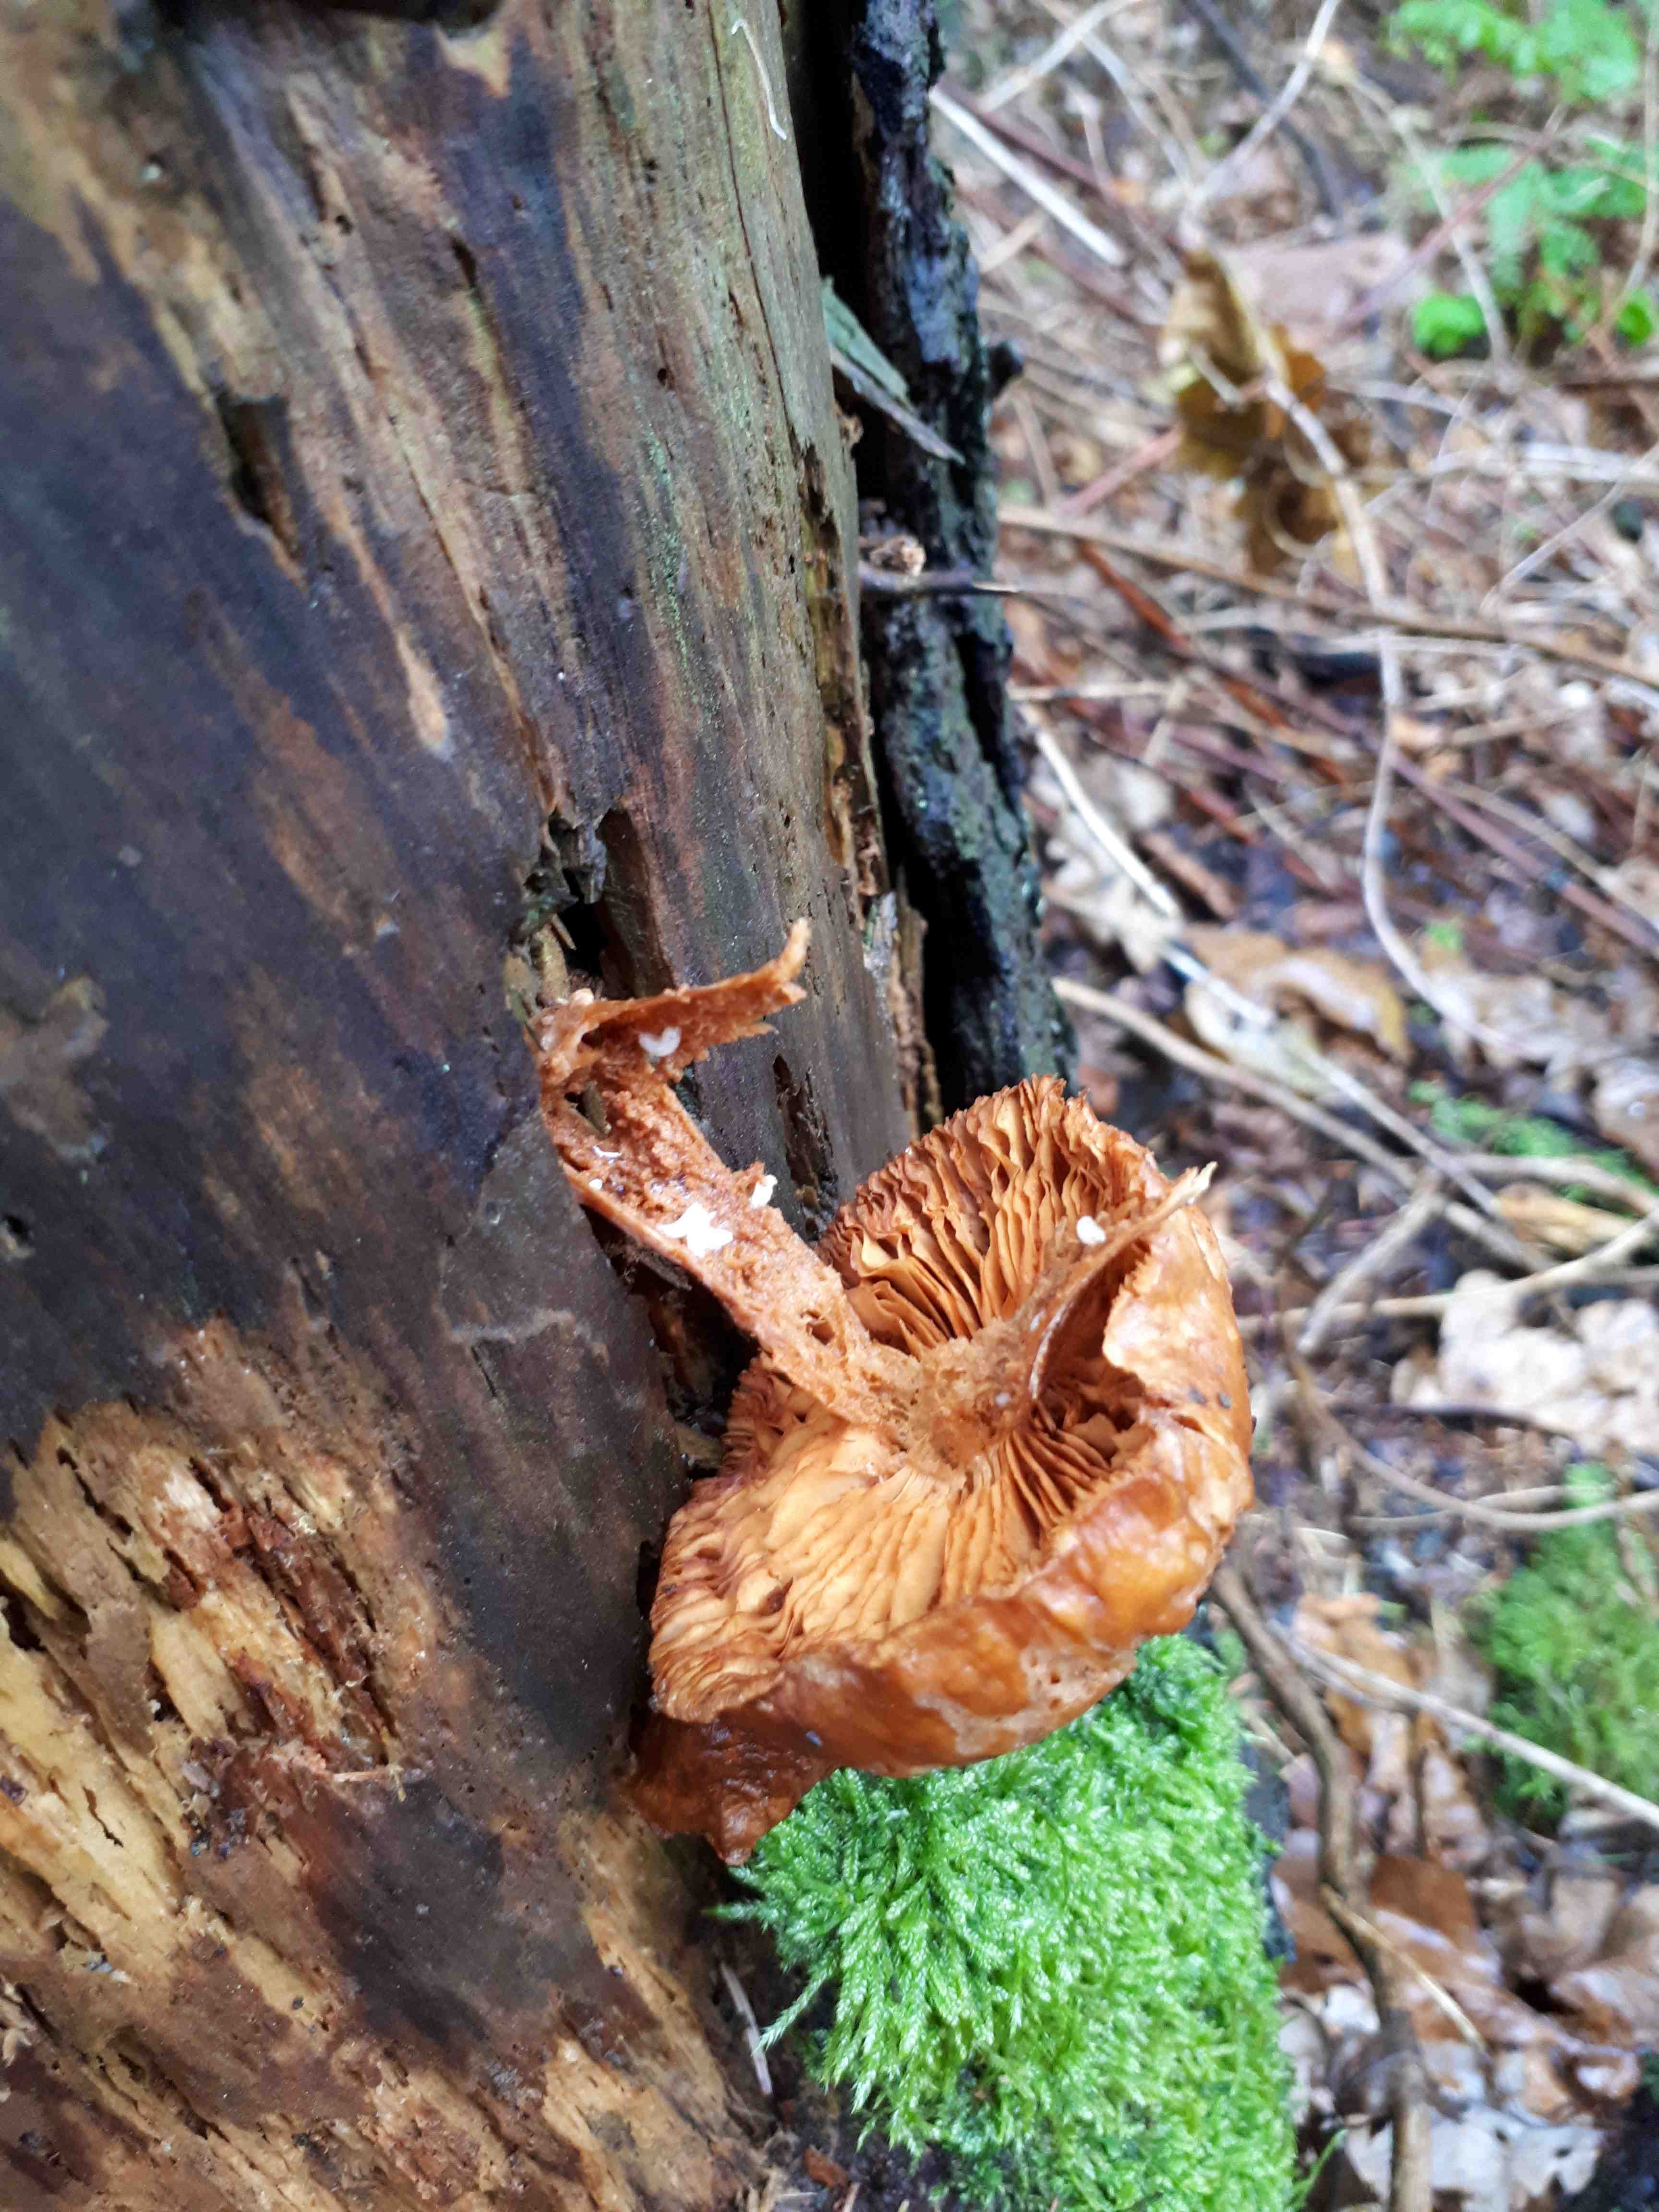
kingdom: Fungi
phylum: Basidiomycota
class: Agaricomycetes
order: Agaricales
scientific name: Agaricales
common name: champignonordenen
